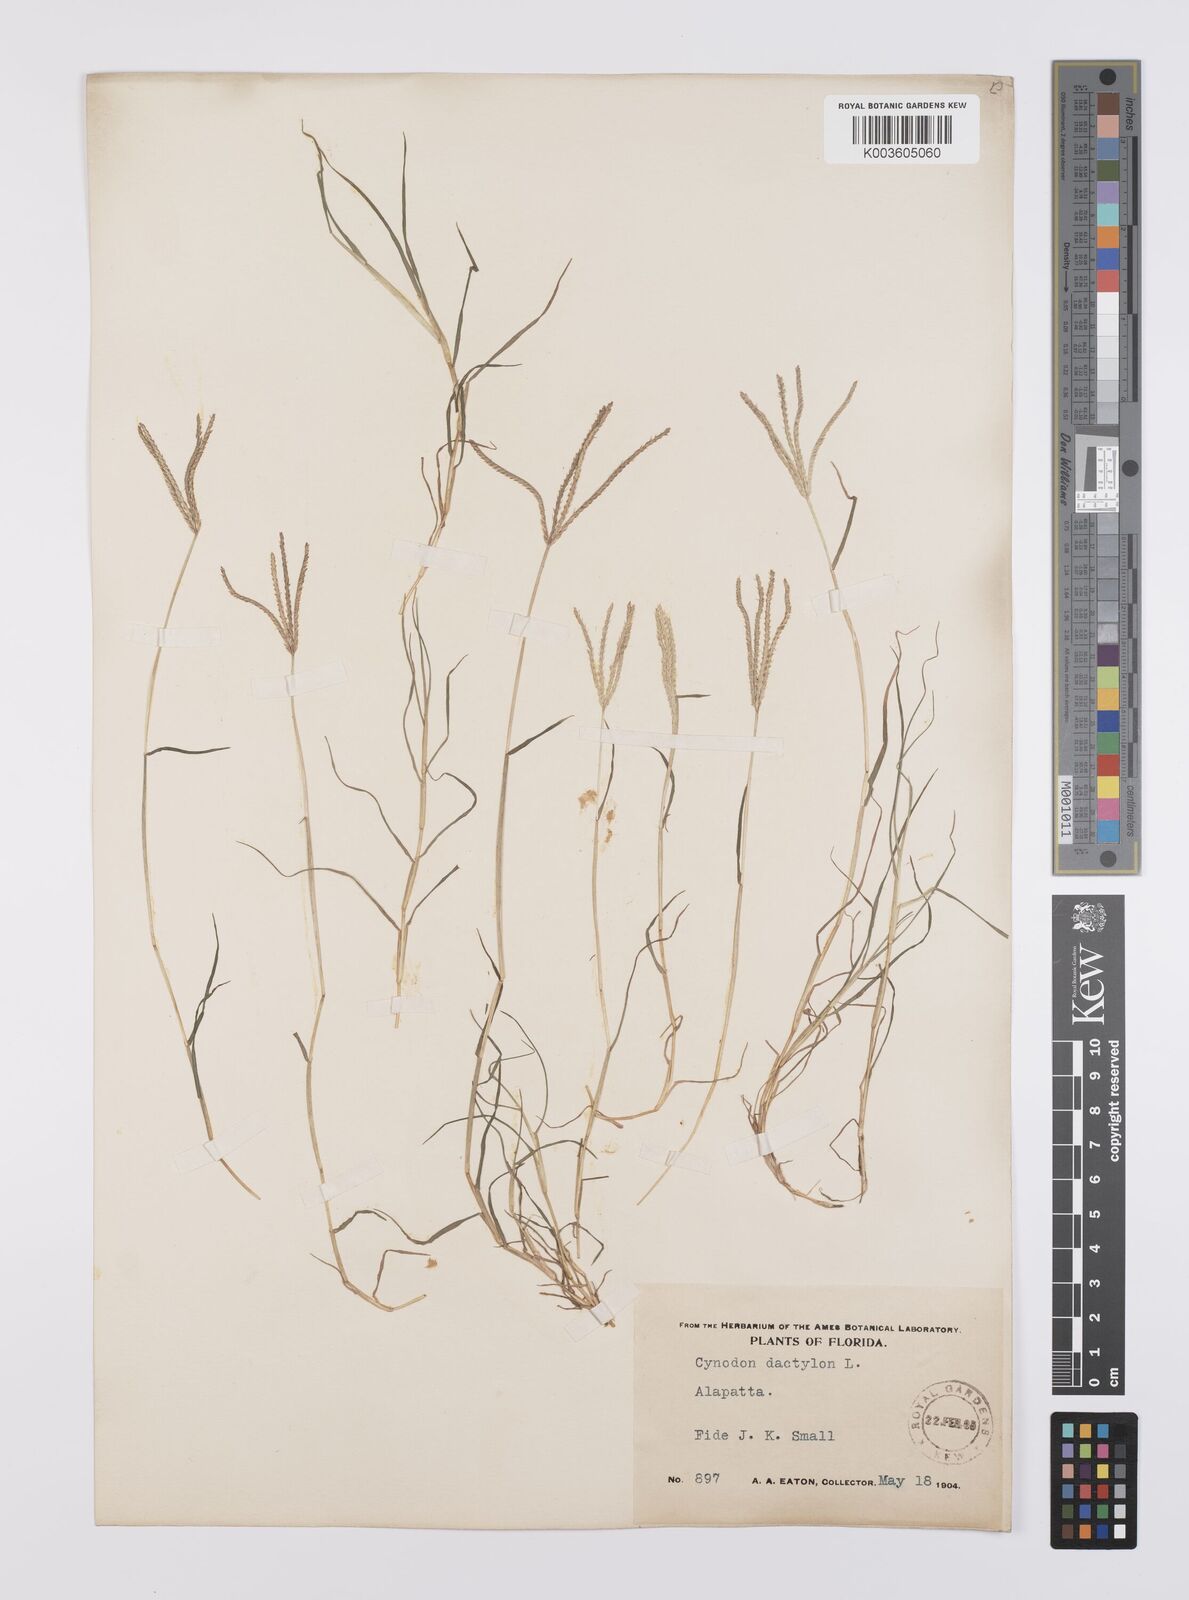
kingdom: Plantae
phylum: Tracheophyta
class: Liliopsida
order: Poales
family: Poaceae
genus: Cynodon
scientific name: Cynodon dactylon
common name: Bermuda grass
